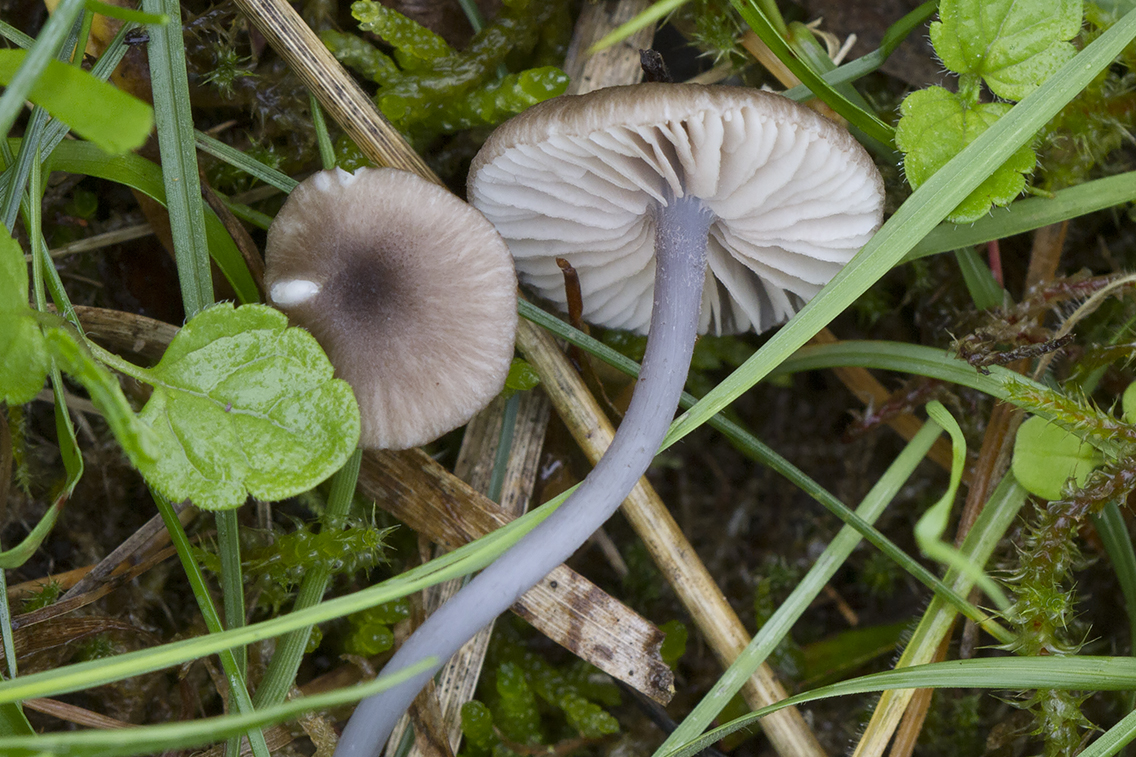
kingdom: Fungi
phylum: Basidiomycota
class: Agaricomycetes
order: Agaricales
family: Entolomataceae
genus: Entoloma
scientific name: Entoloma isborscanum
